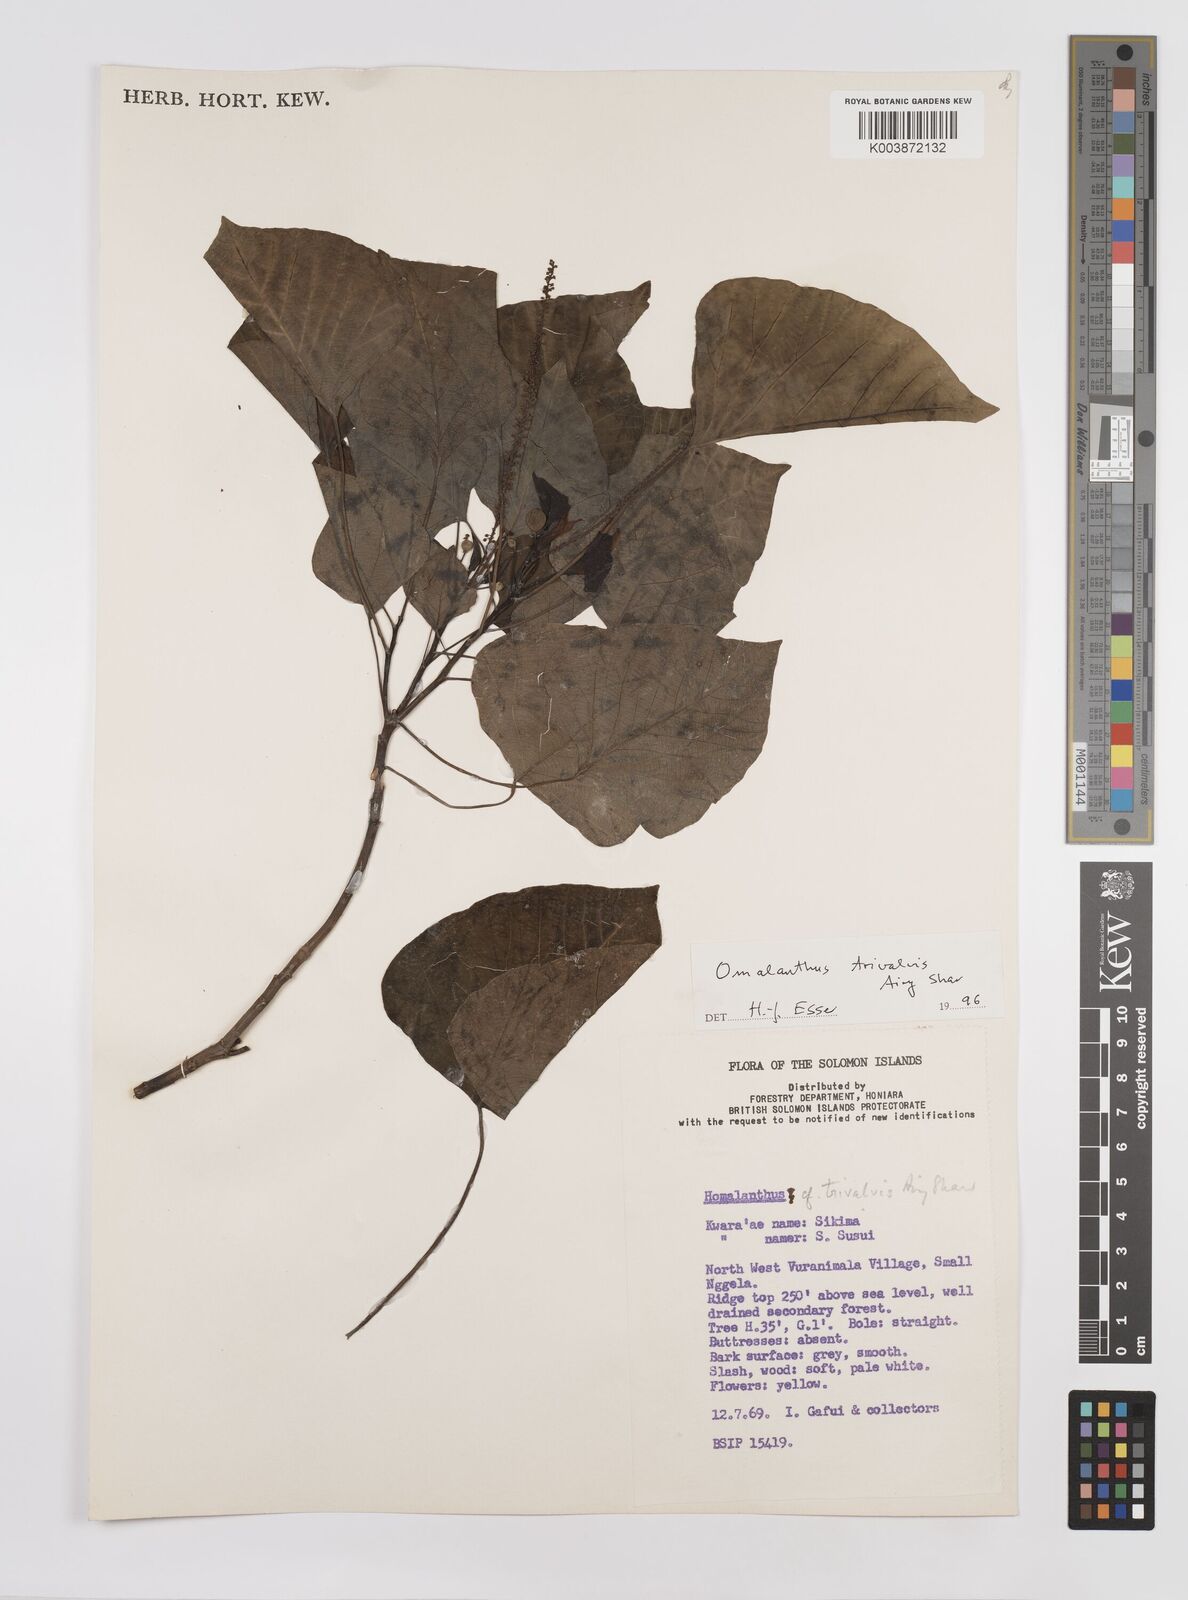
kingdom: Plantae
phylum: Tracheophyta
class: Magnoliopsida
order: Malpighiales
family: Euphorbiaceae
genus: Homalanthus
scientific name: Homalanthus trivalvis
